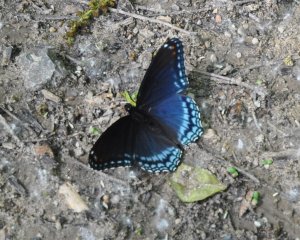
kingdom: Animalia
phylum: Arthropoda
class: Insecta
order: Lepidoptera
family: Nymphalidae
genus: Limenitis
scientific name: Limenitis astyanax
